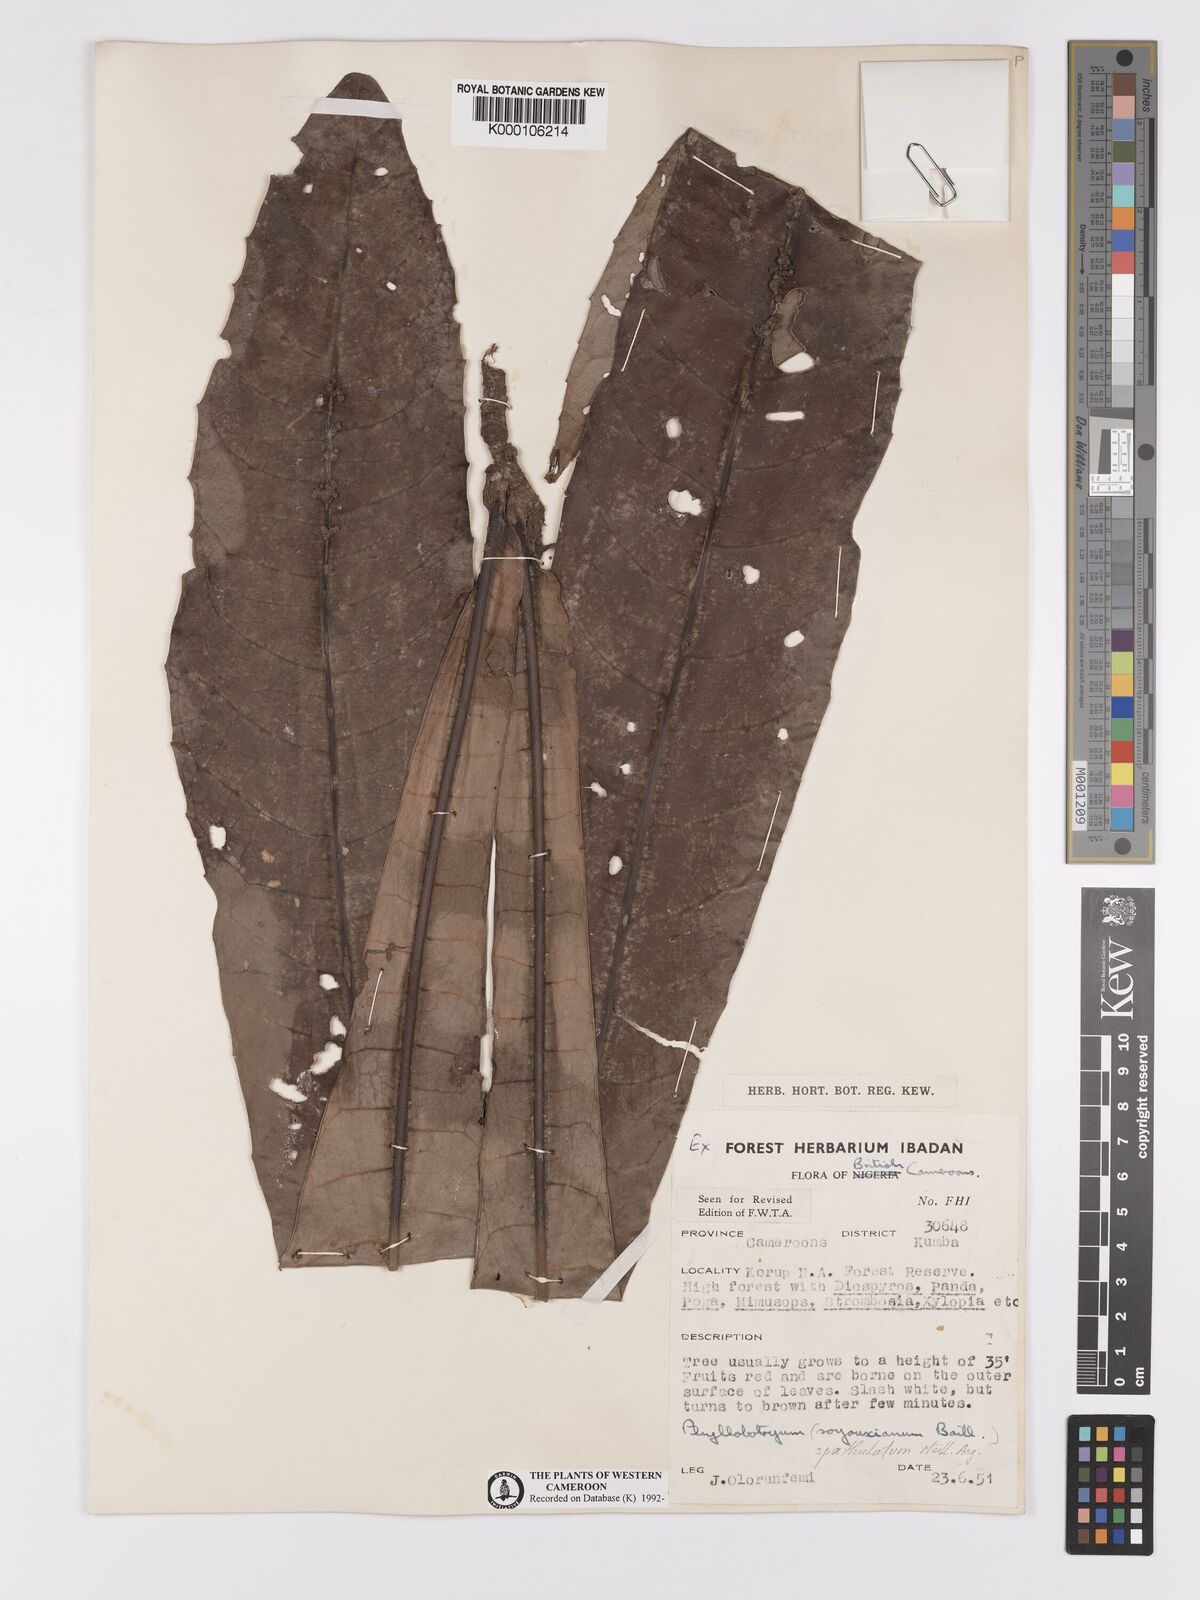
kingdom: Plantae
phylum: Tracheophyta
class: Magnoliopsida
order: Malpighiales
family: Salicaceae
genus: Phyllobotryon
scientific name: Phyllobotryon
